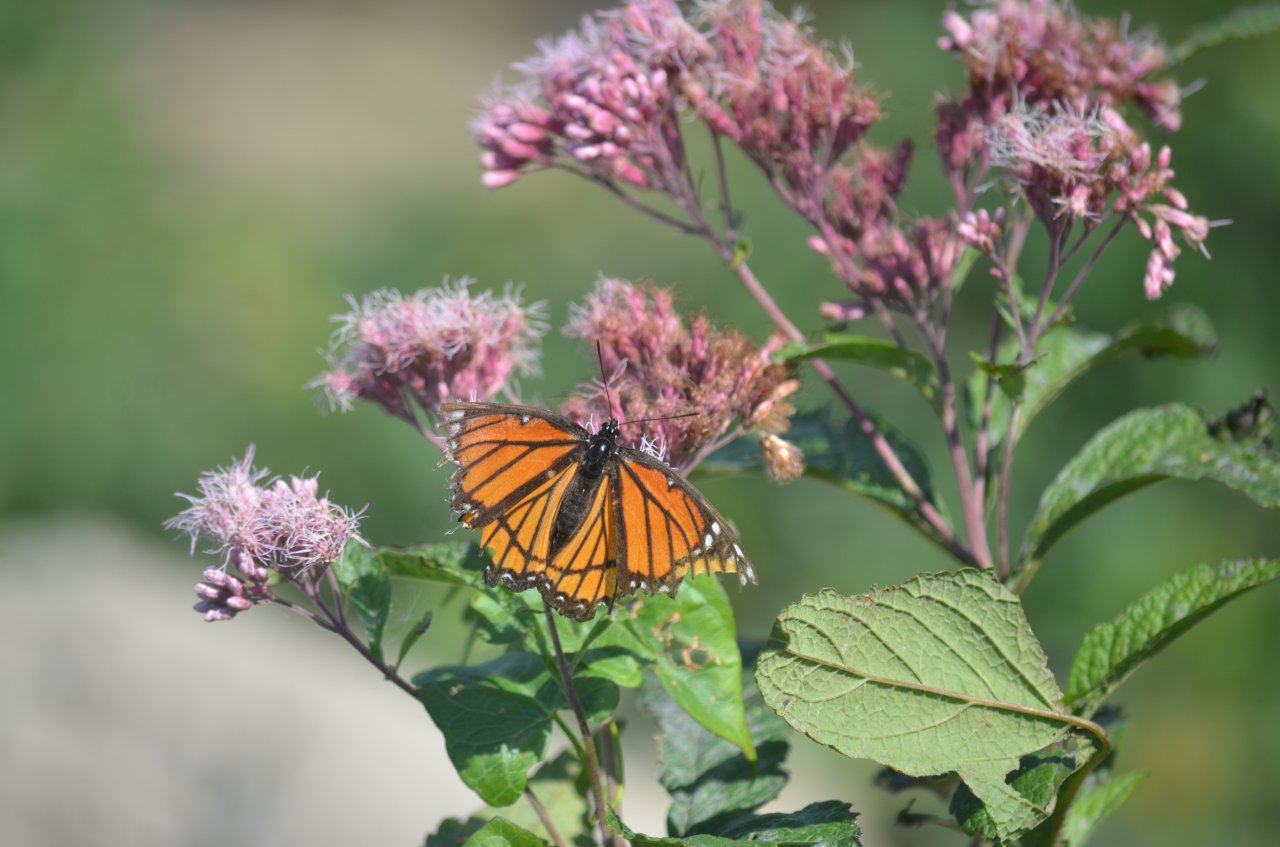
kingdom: Animalia
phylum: Arthropoda
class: Insecta
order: Lepidoptera
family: Nymphalidae
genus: Limenitis
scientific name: Limenitis archippus
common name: Viceroy
